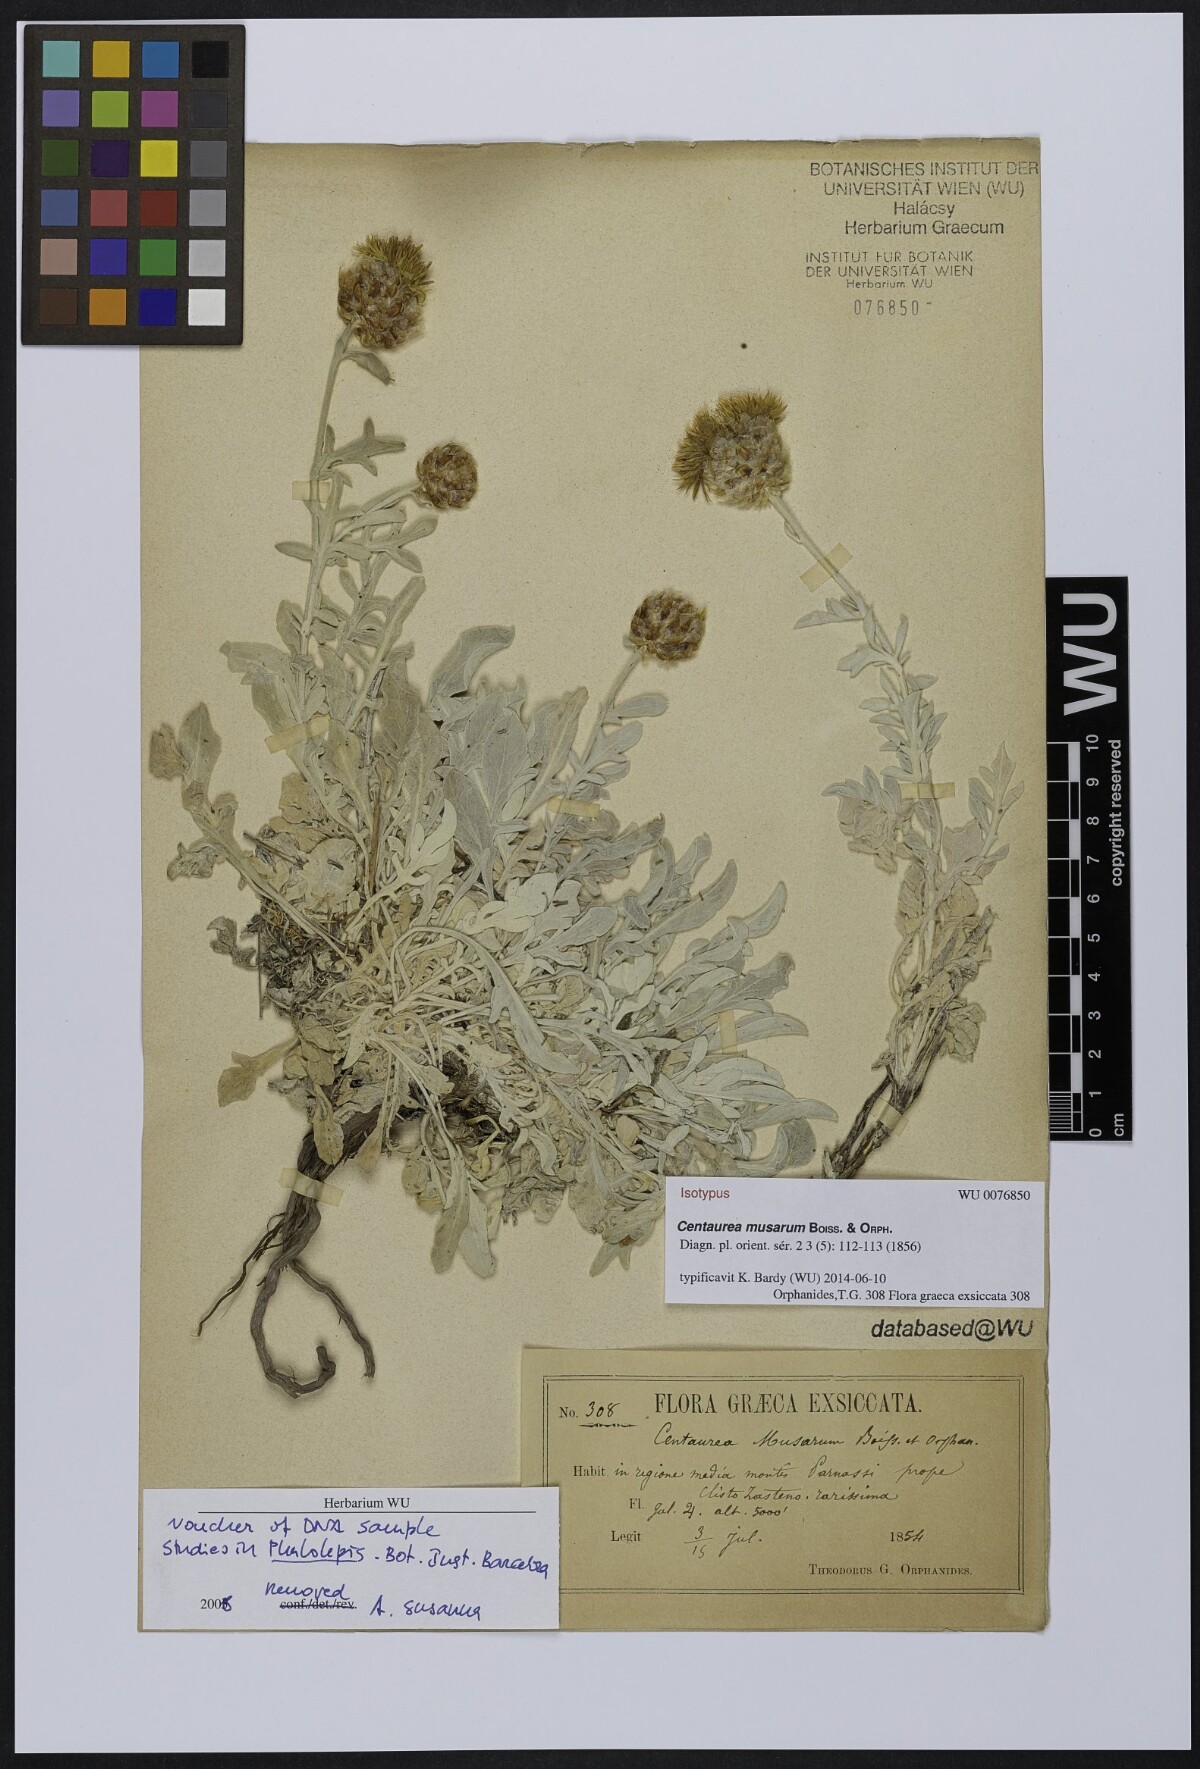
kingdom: Plantae
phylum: Tracheophyta
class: Magnoliopsida
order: Asterales
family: Asteraceae
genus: Centaurea
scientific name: Centaurea musarum
